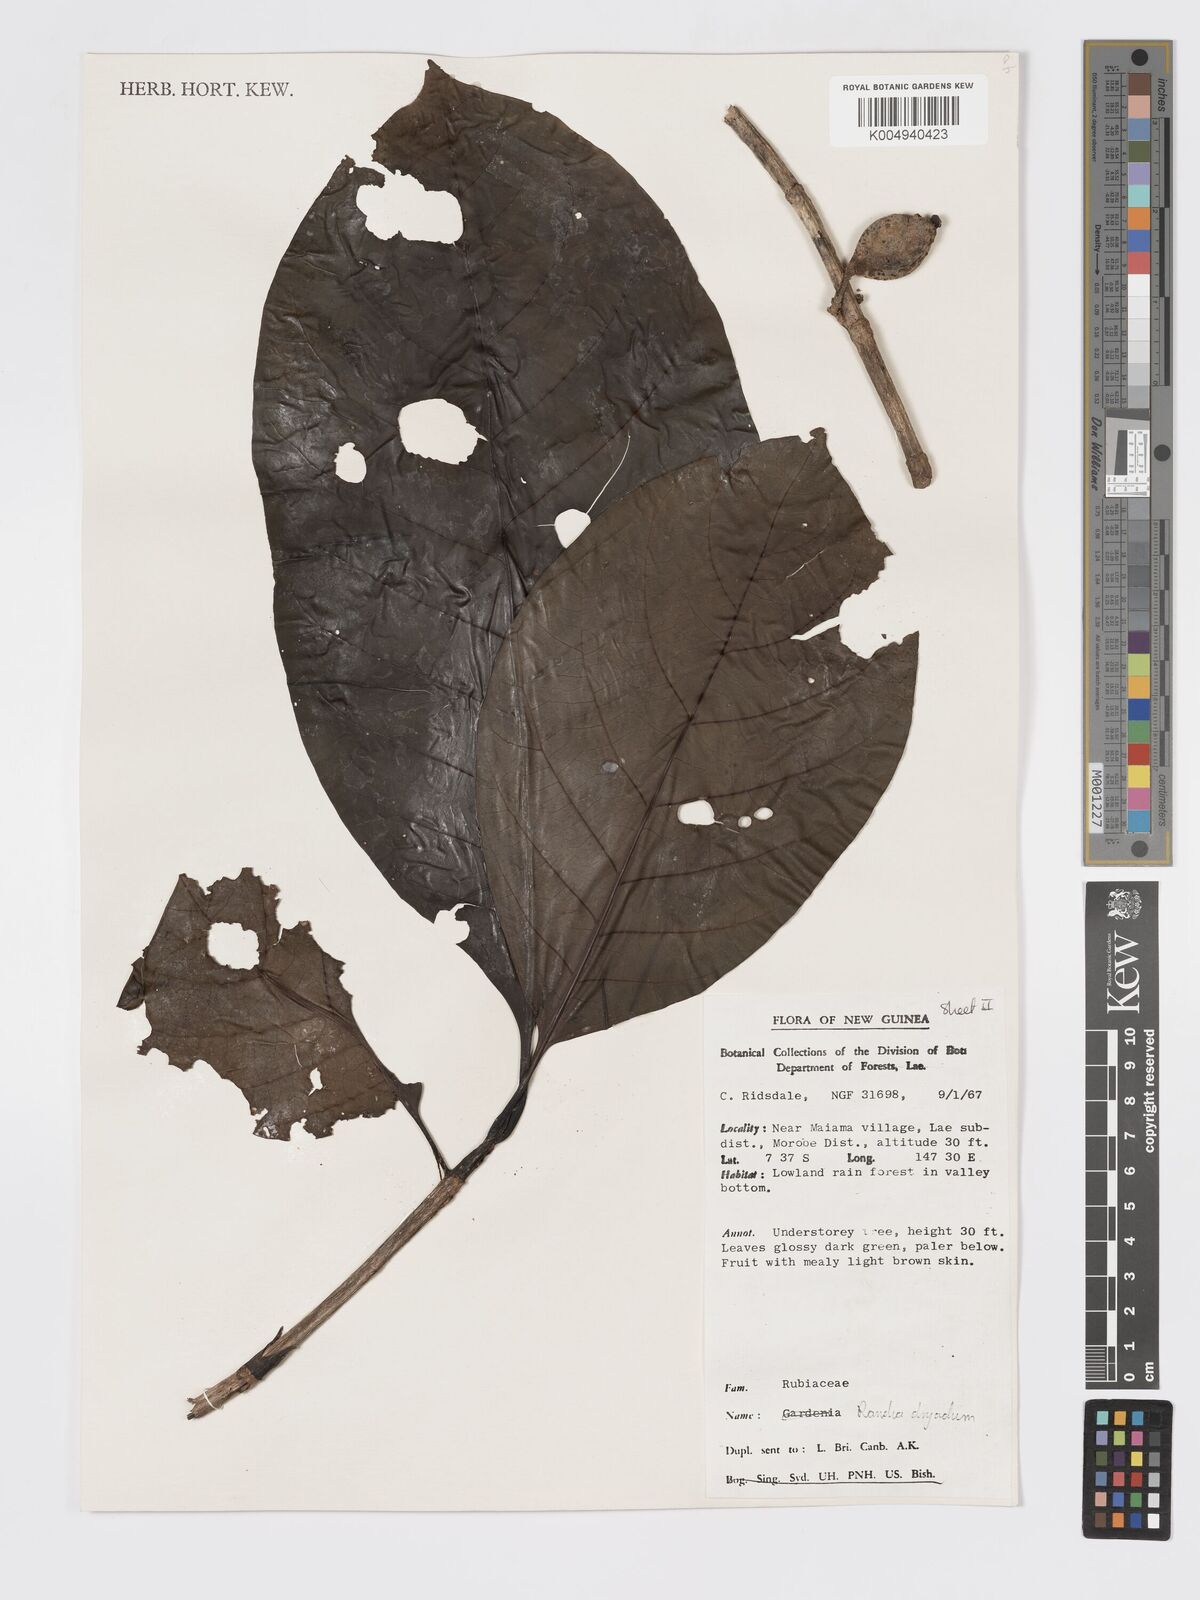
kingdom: Plantae
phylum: Tracheophyta
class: Magnoliopsida
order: Gentianales
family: Rubiaceae
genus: Atractocarpus
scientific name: Atractocarpus macarthurii
